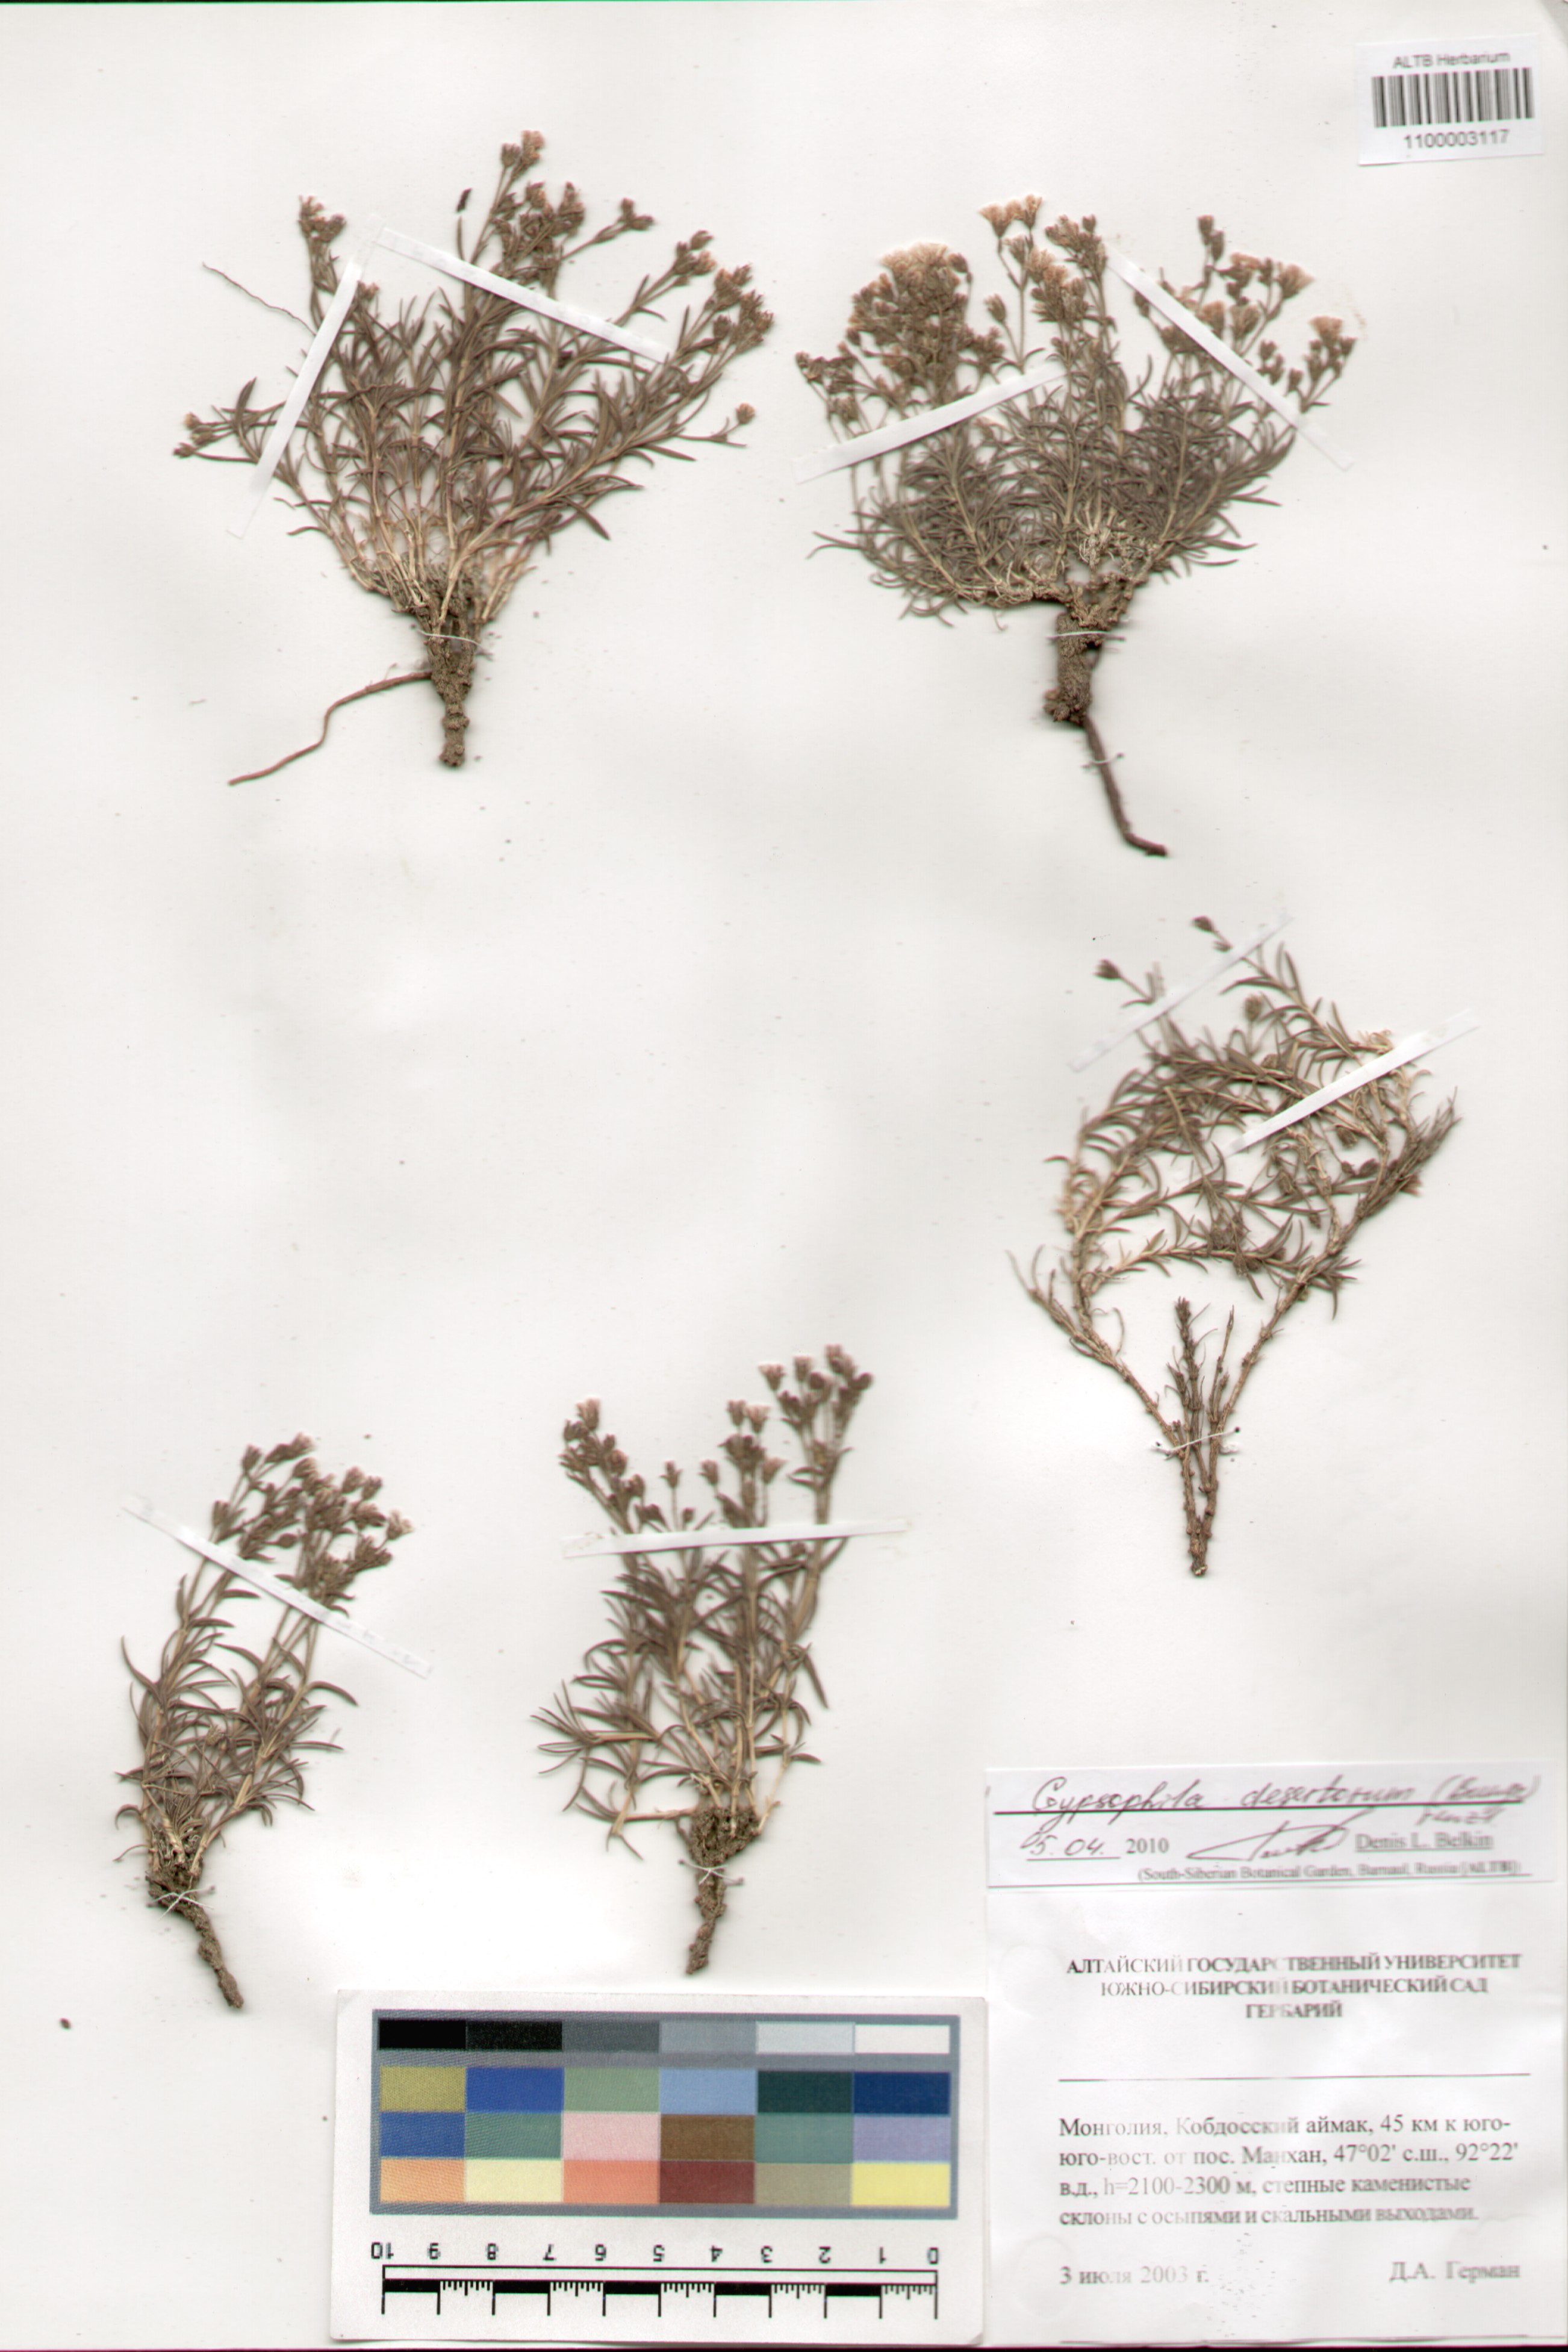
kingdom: Plantae
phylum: Tracheophyta
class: Magnoliopsida
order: Caryophyllales
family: Caryophyllaceae
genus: Heterochroa
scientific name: Heterochroa desertorum
